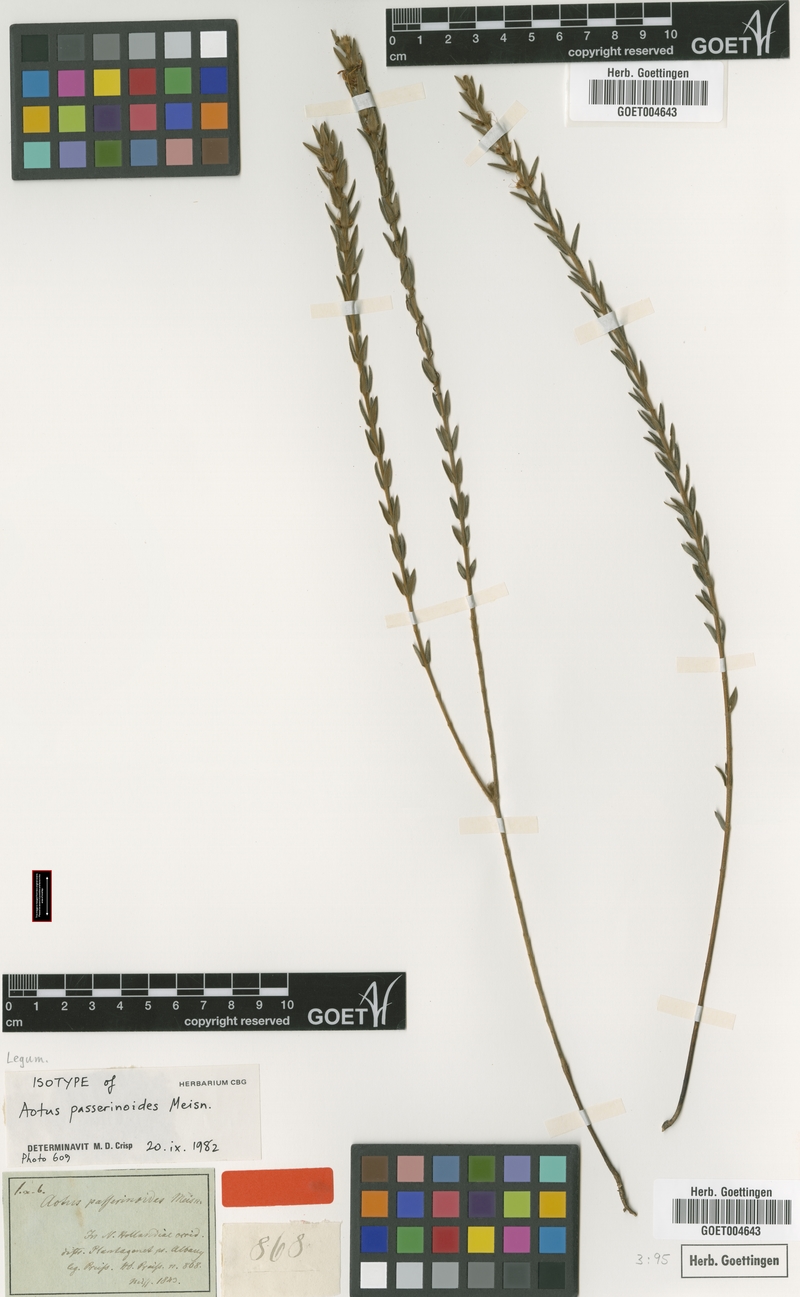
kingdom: Plantae
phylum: Tracheophyta
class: Magnoliopsida
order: Fabales
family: Fabaceae
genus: Aotus
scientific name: Aotus passerinoides
